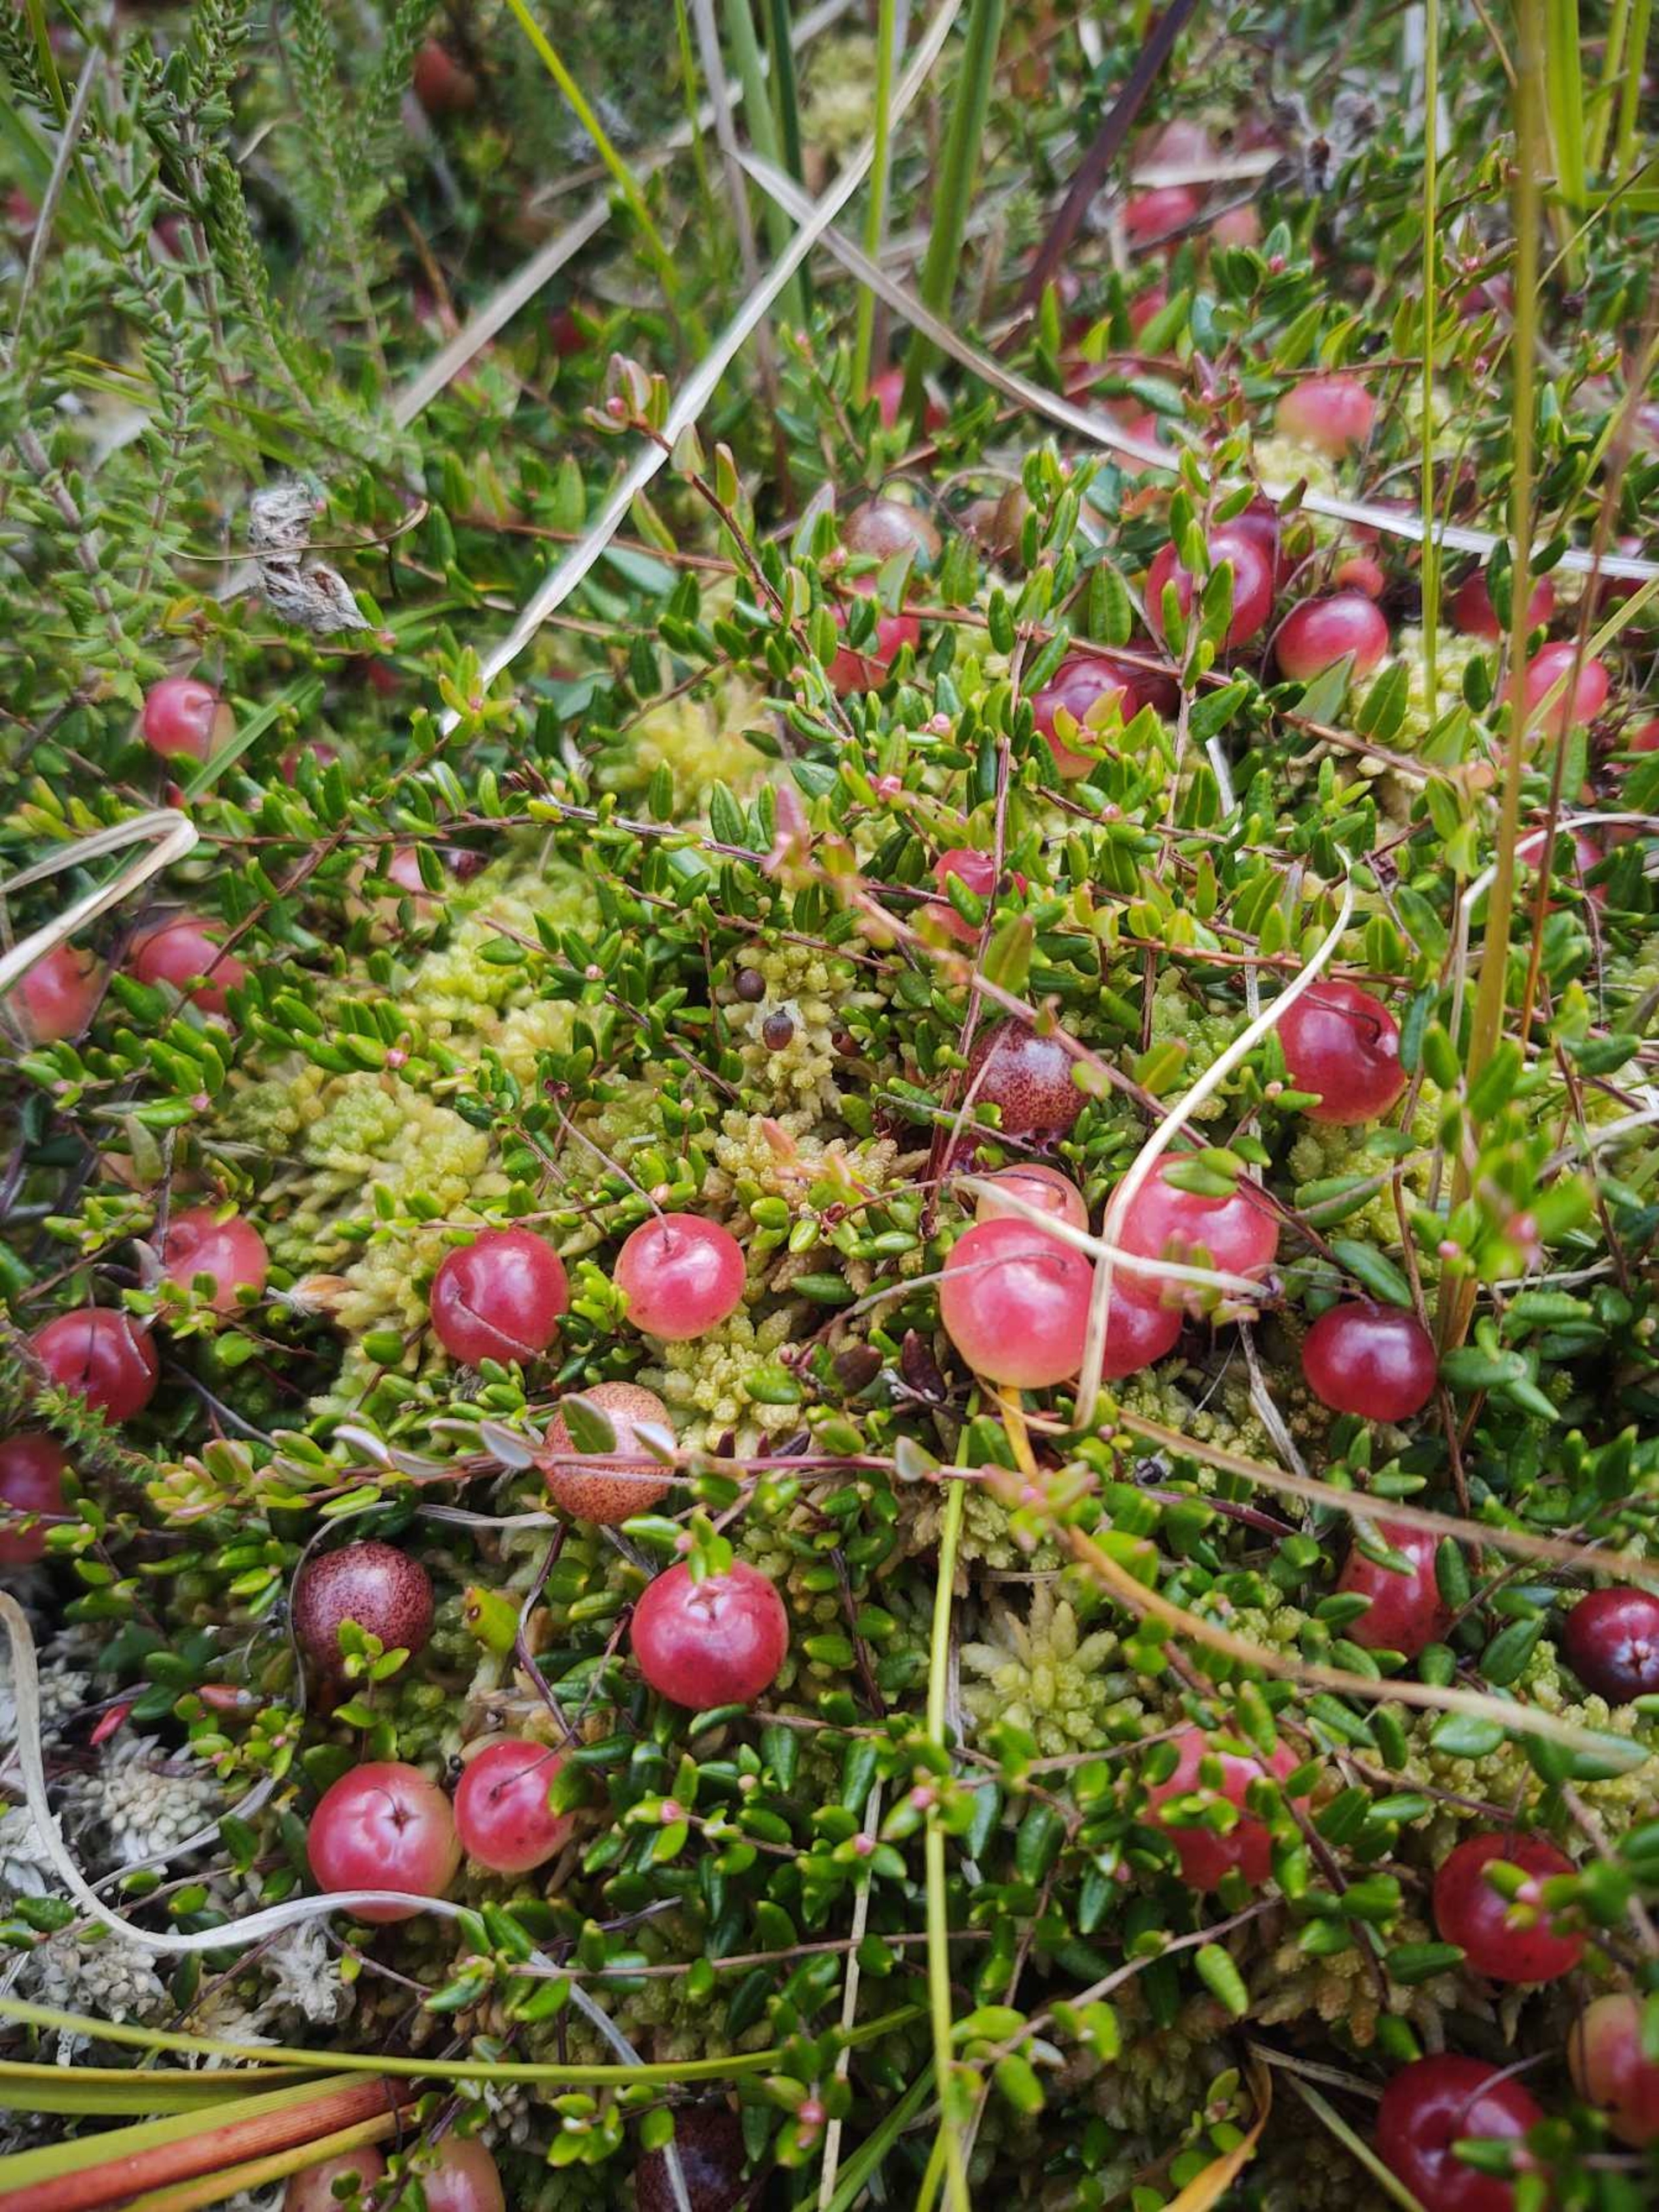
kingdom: Plantae
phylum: Tracheophyta
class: Magnoliopsida
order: Ericales
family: Ericaceae
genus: Vaccinium
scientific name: Vaccinium oxycoccos
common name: Tranebær
